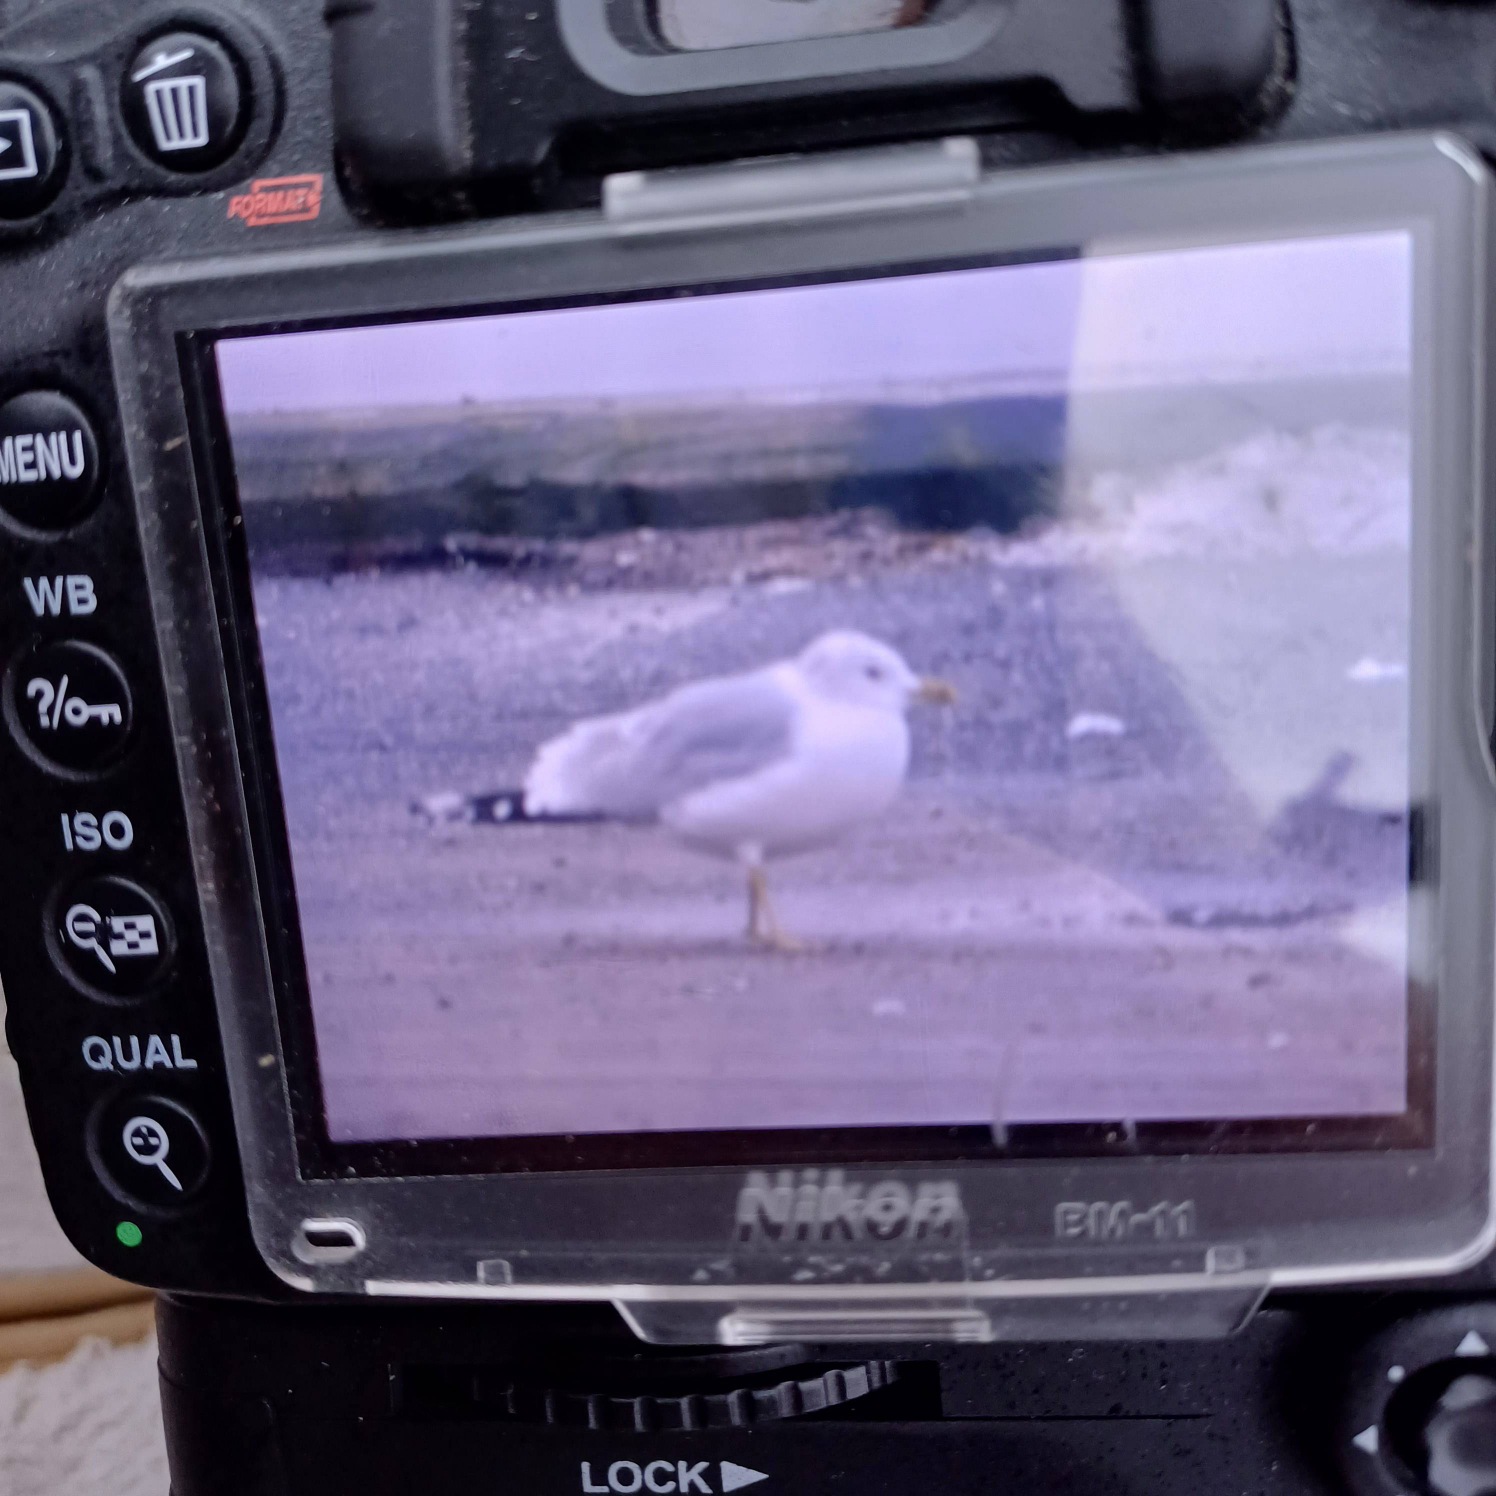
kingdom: Animalia
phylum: Chordata
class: Aves
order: Charadriiformes
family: Laridae
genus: Larus
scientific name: Larus canus
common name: Stormmåge
